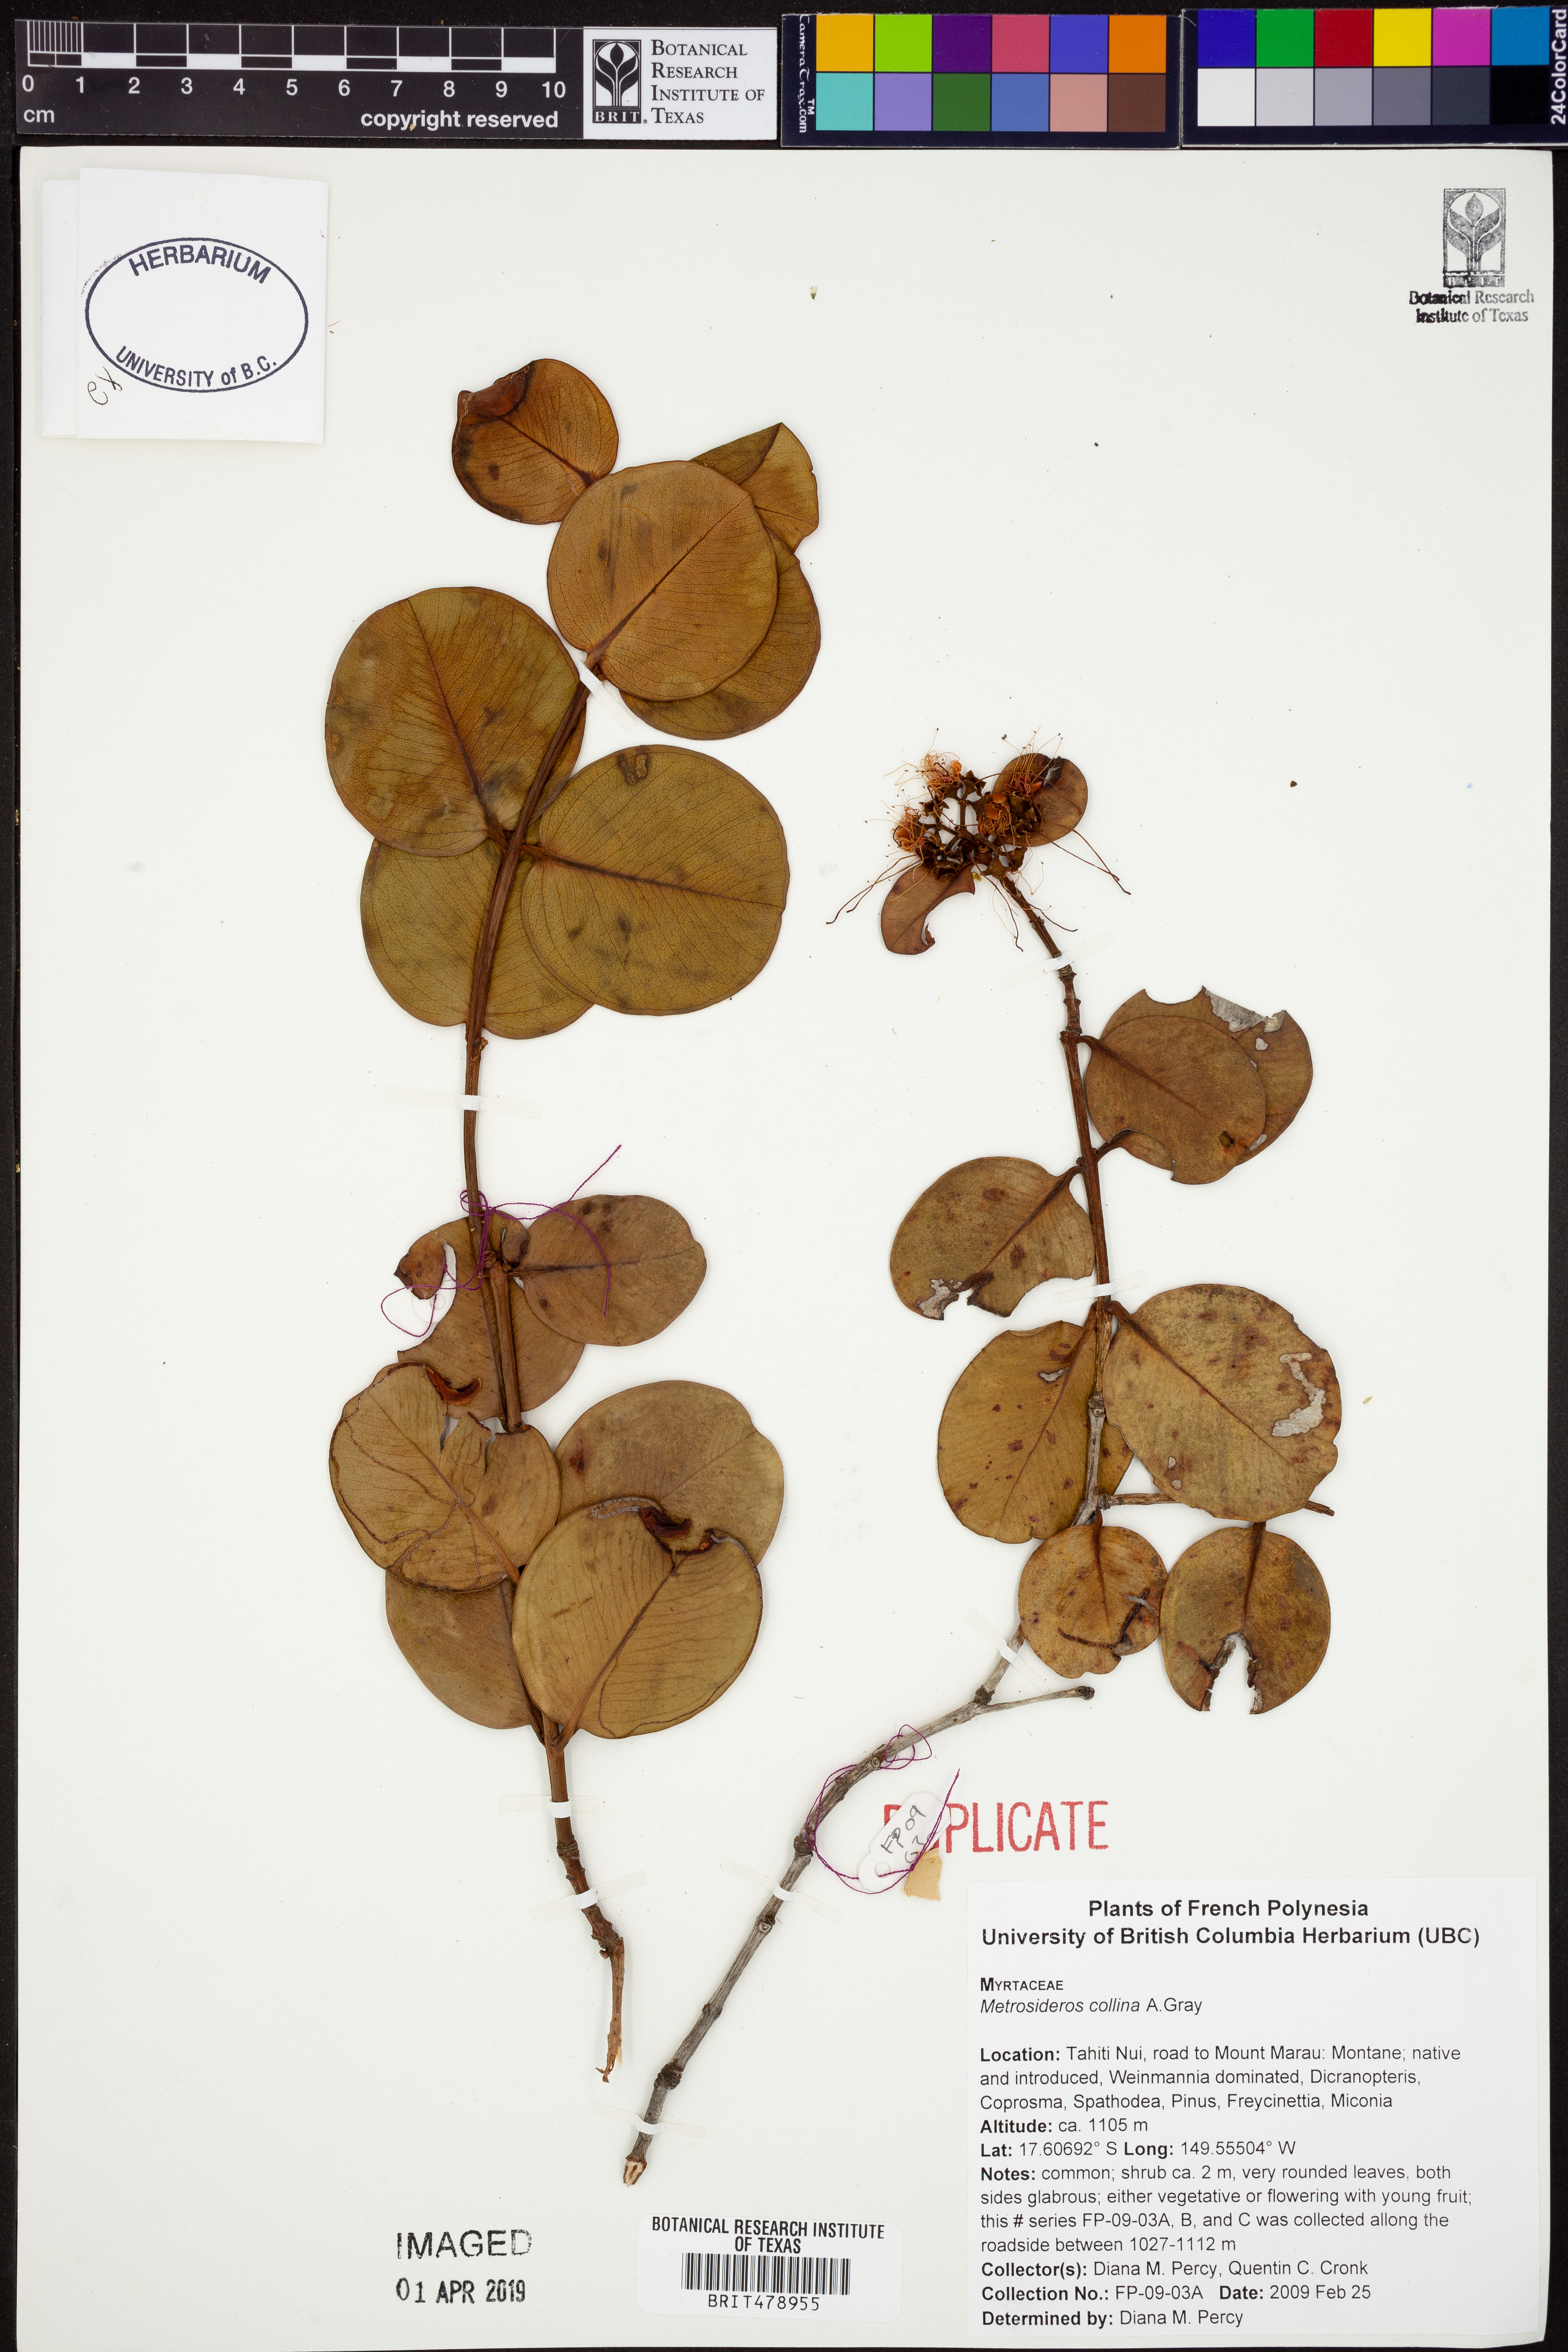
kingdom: Plantae
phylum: Tracheophyta
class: Magnoliopsida
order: Myrtales
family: Myrtaceae
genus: Metrosideros
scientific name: Metrosideros collina
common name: Vunga
